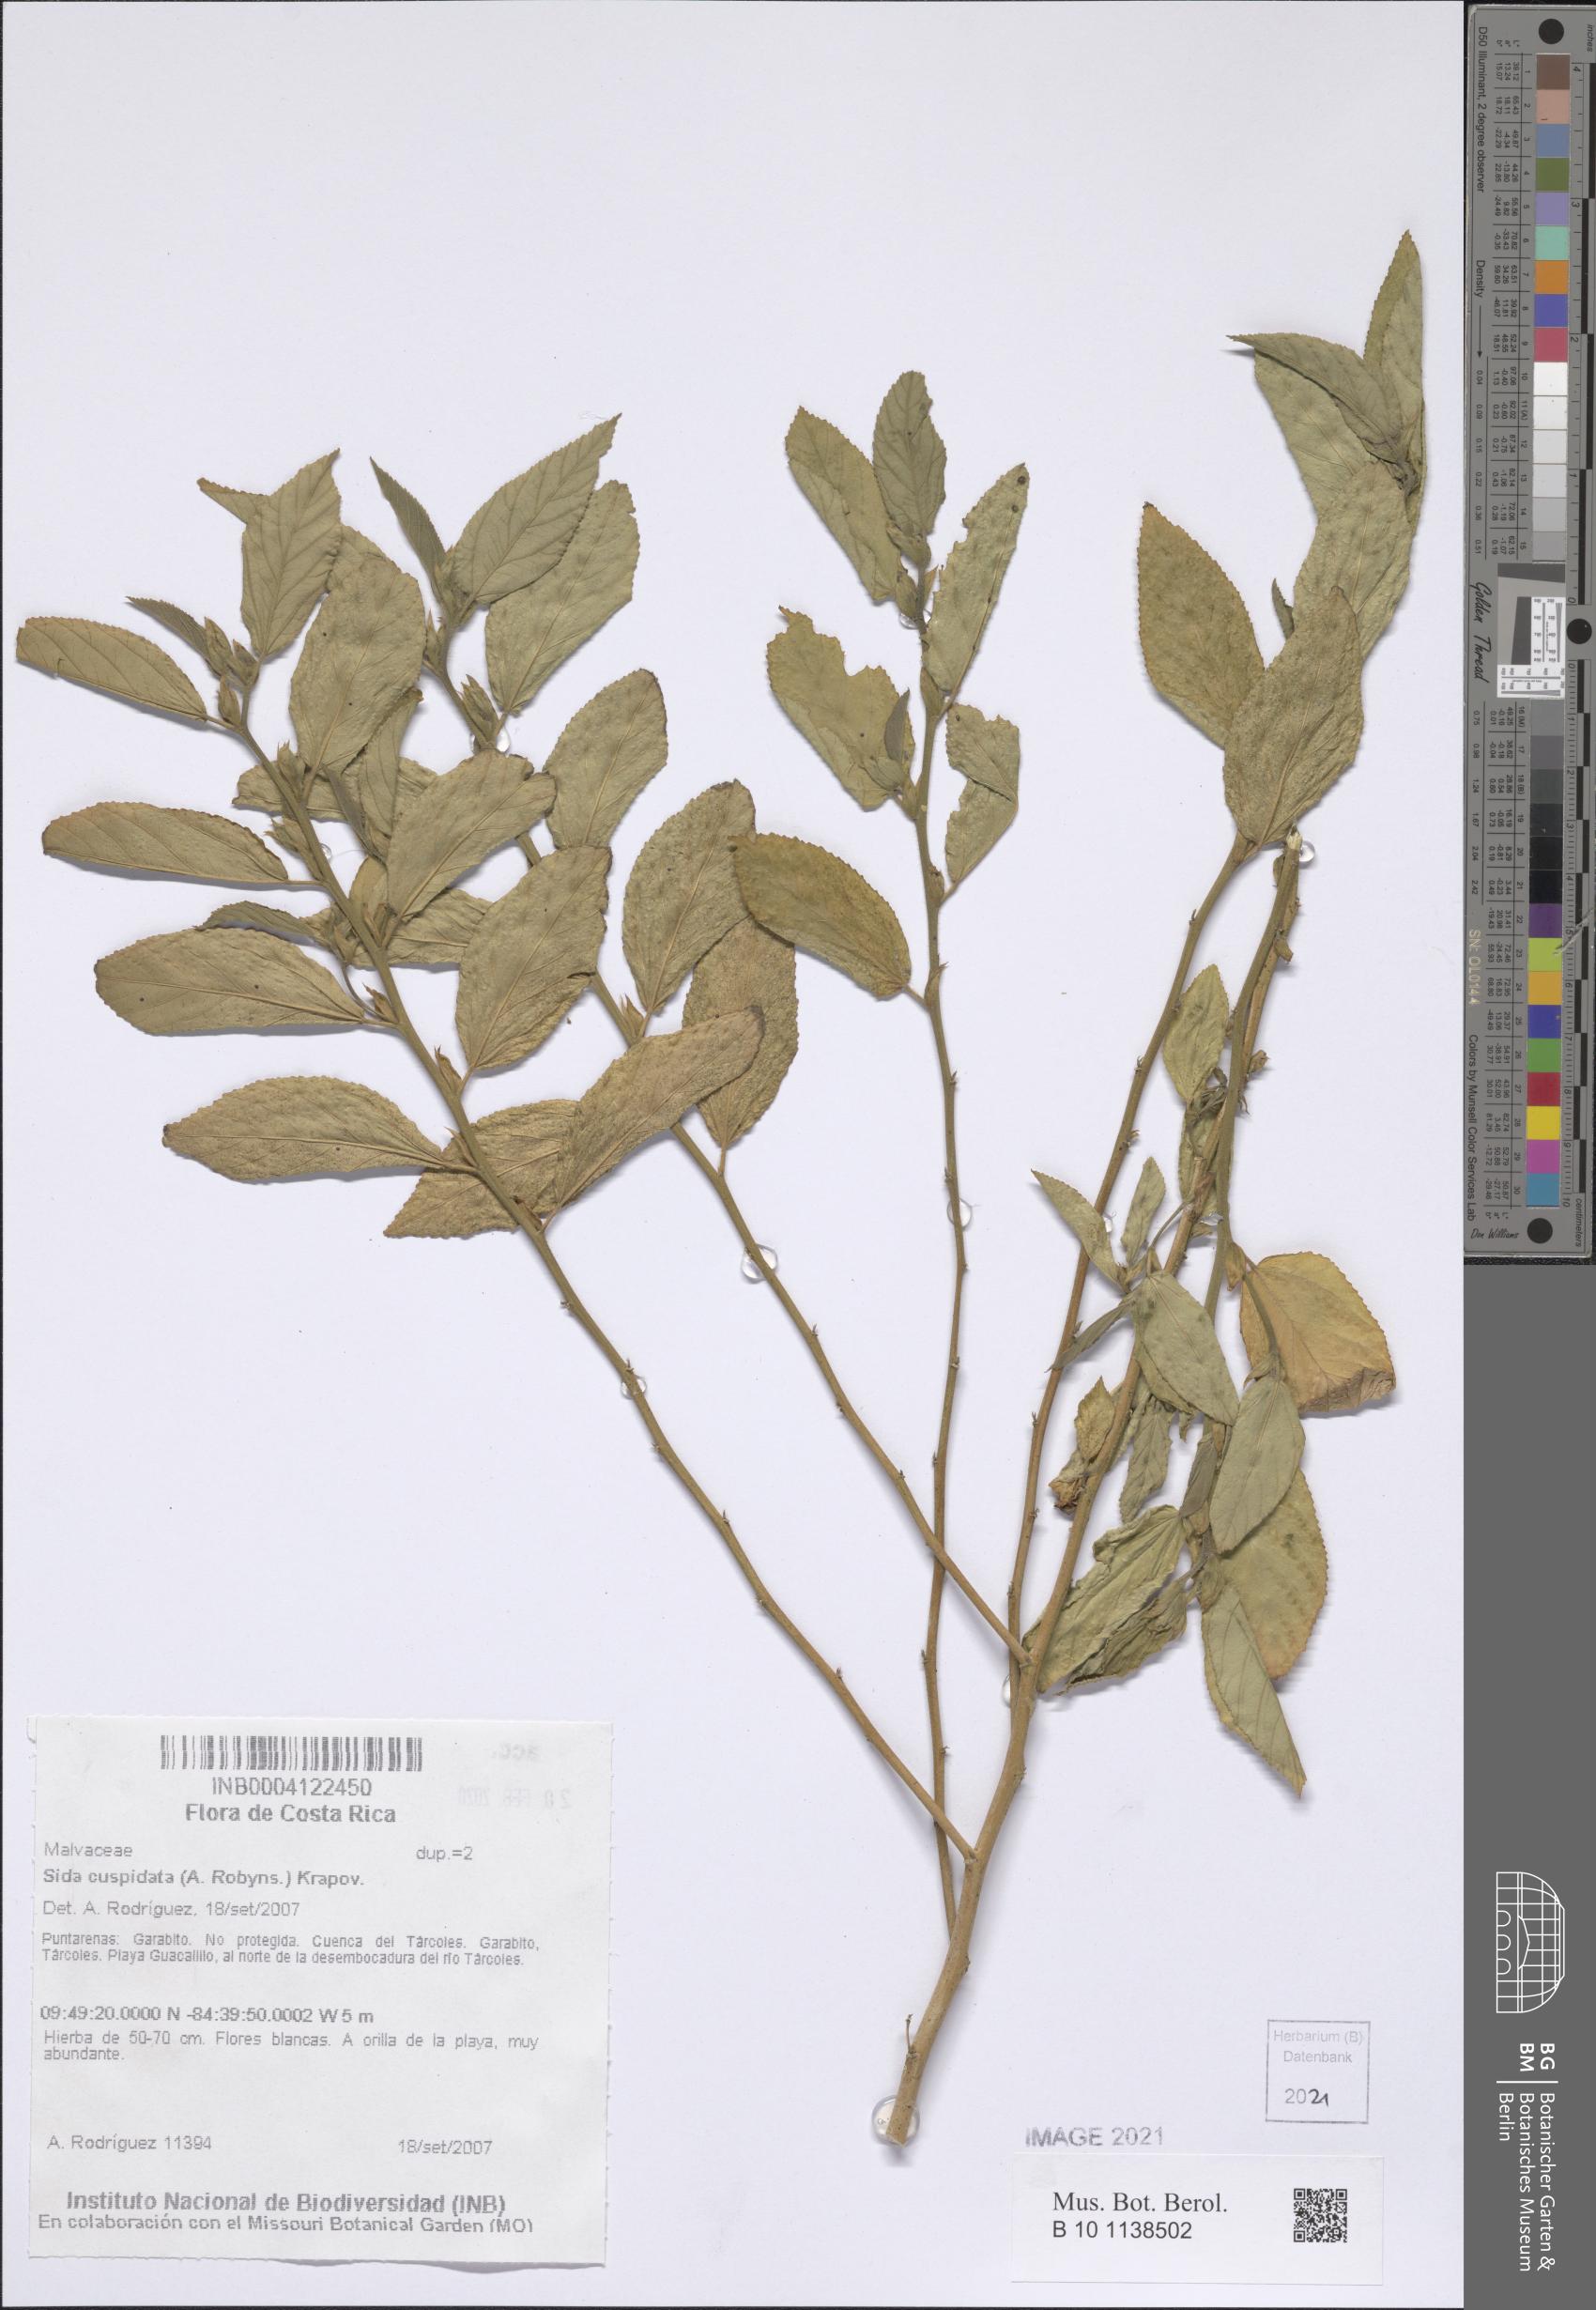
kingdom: Plantae
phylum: Tracheophyta
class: Magnoliopsida
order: Malvales
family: Malvaceae
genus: Sida
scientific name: Sida cuspidata
